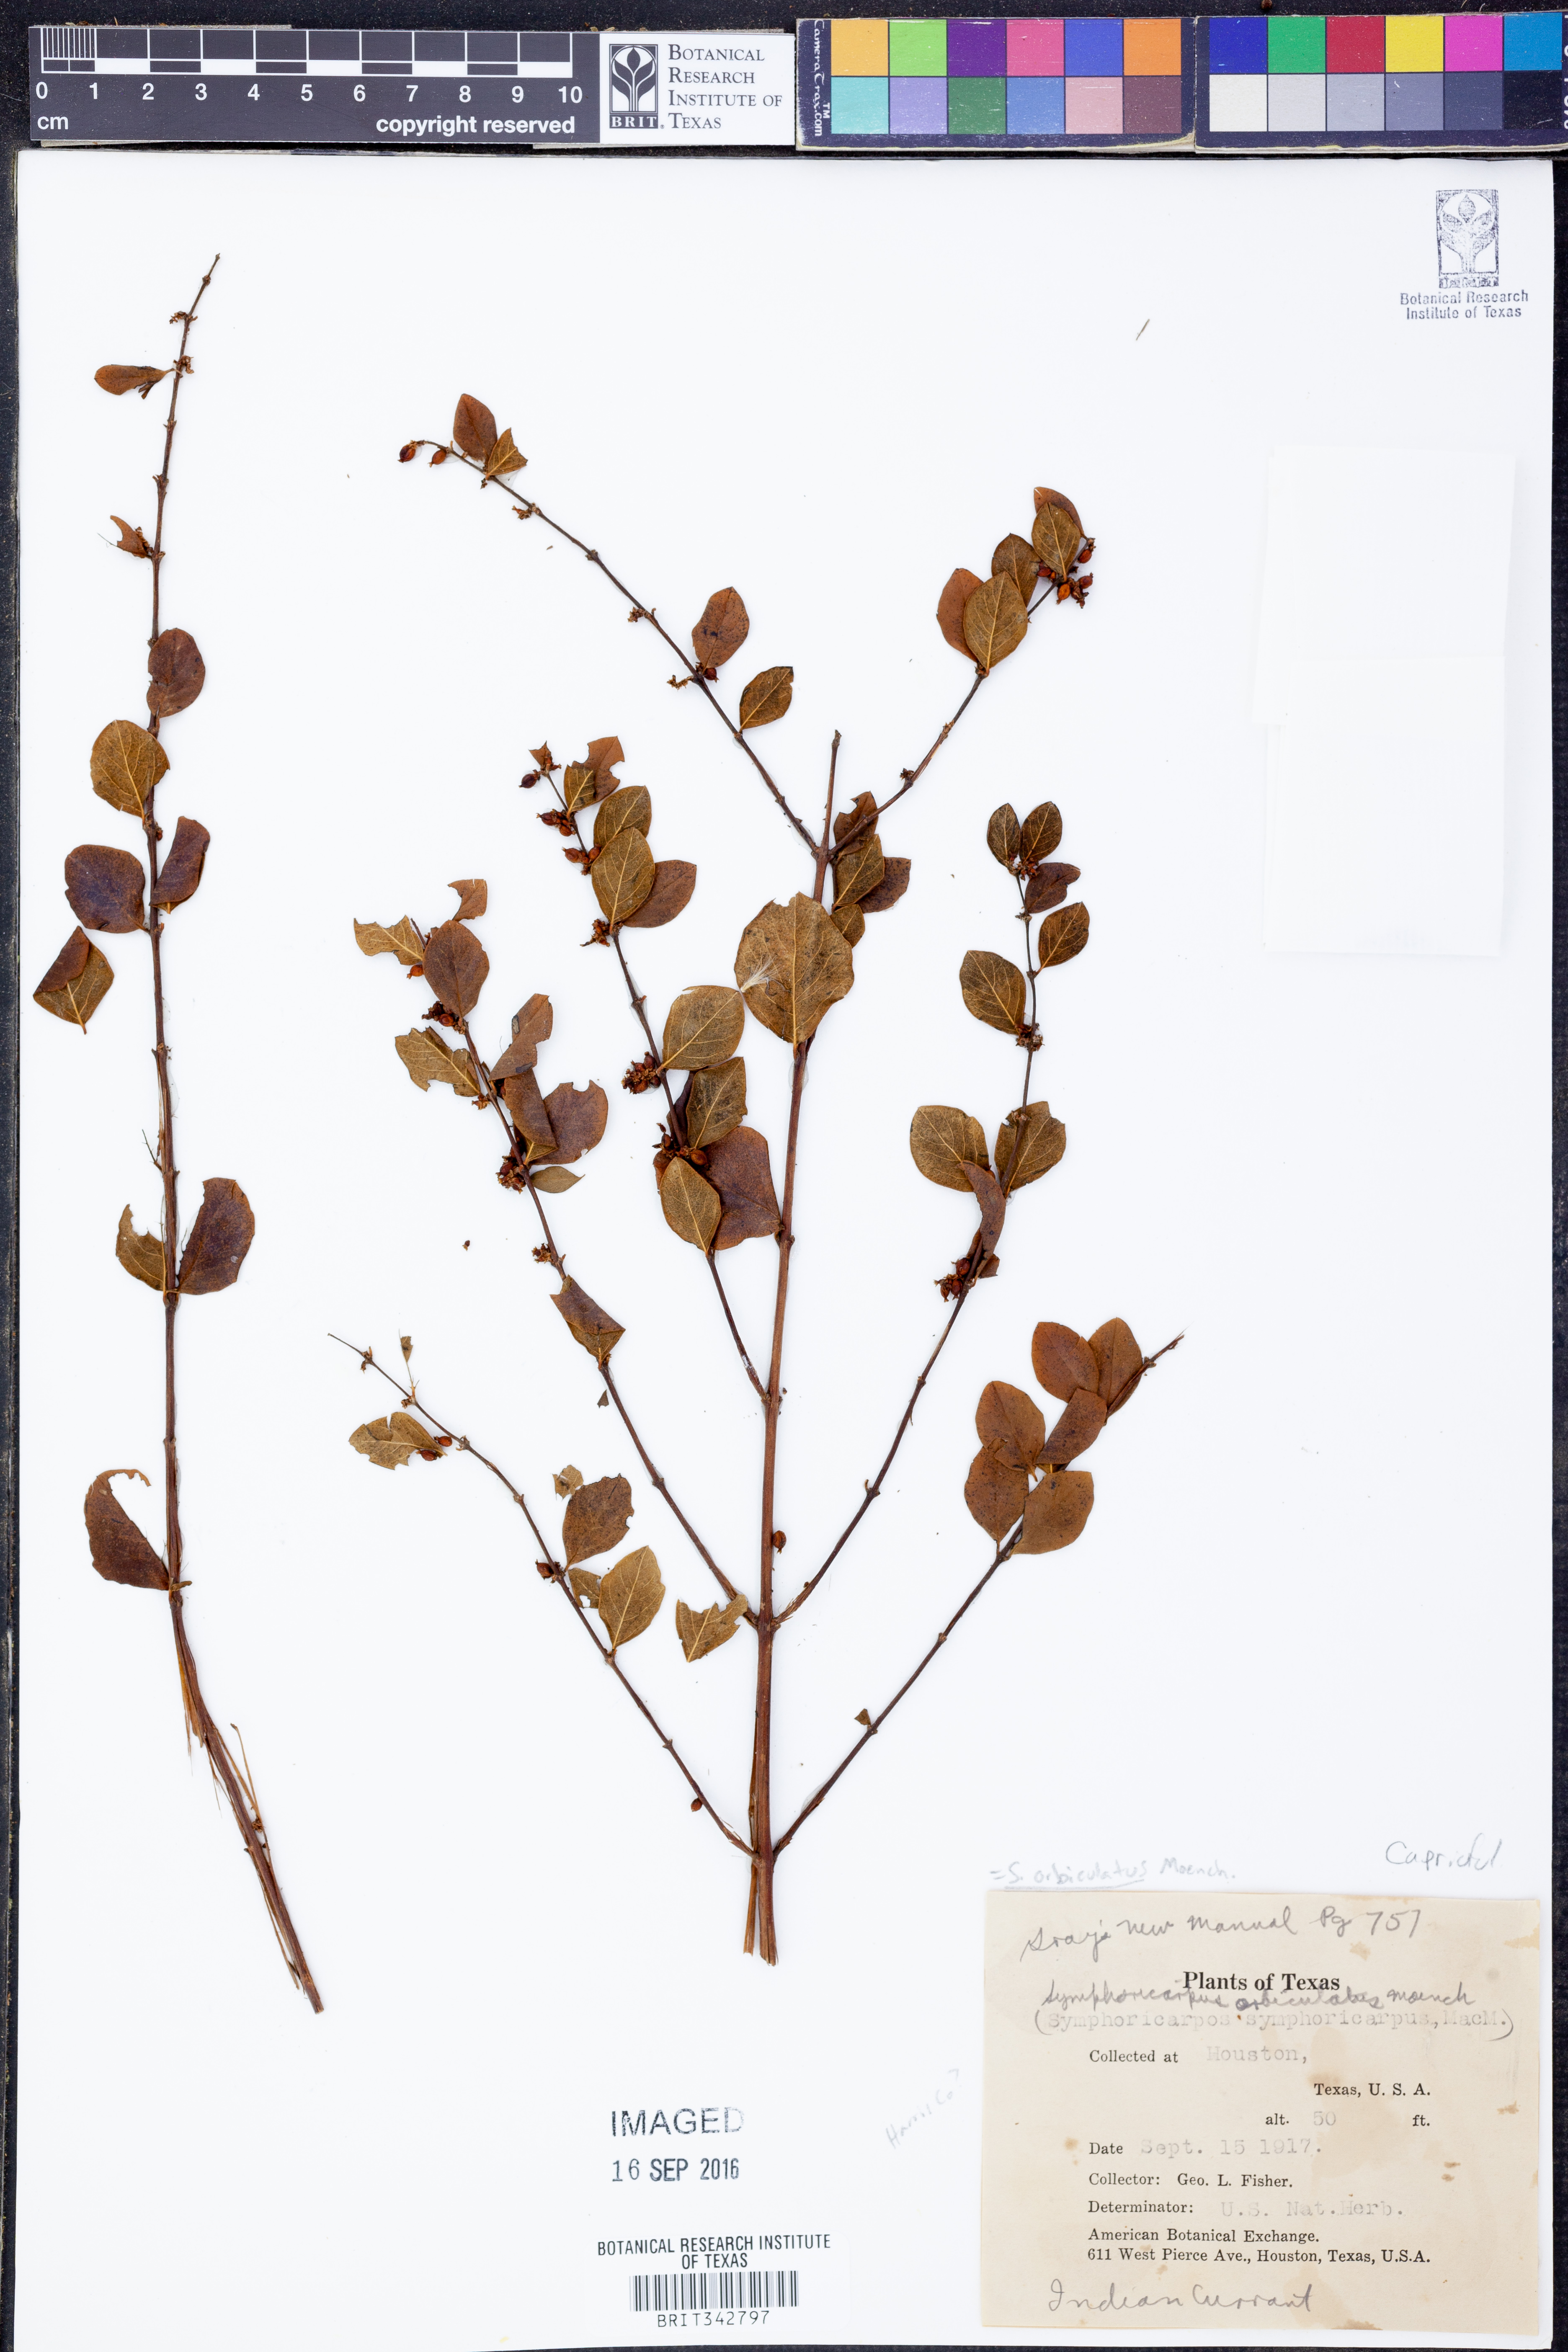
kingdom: Plantae
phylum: Tracheophyta
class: Magnoliopsida
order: Dipsacales
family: Caprifoliaceae
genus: Symphoricarpos
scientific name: Symphoricarpos orbiculatus
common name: Coralberry
